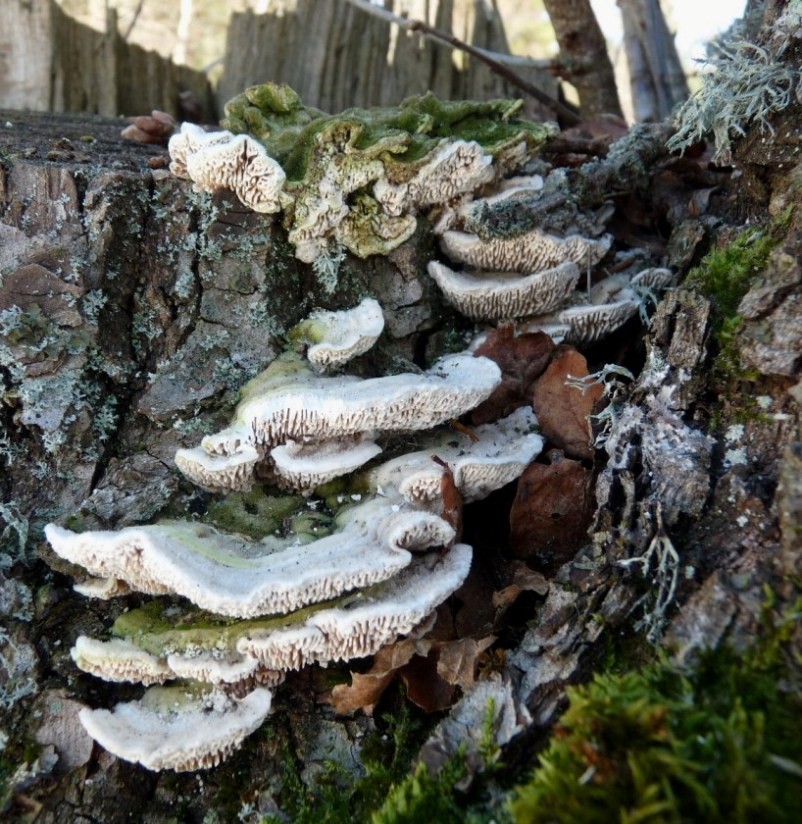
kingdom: Fungi
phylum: Basidiomycota
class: Agaricomycetes
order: Polyporales
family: Fomitopsidaceae
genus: Daedalea
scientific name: Daedalea quercina
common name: ege-labyrintsvamp
